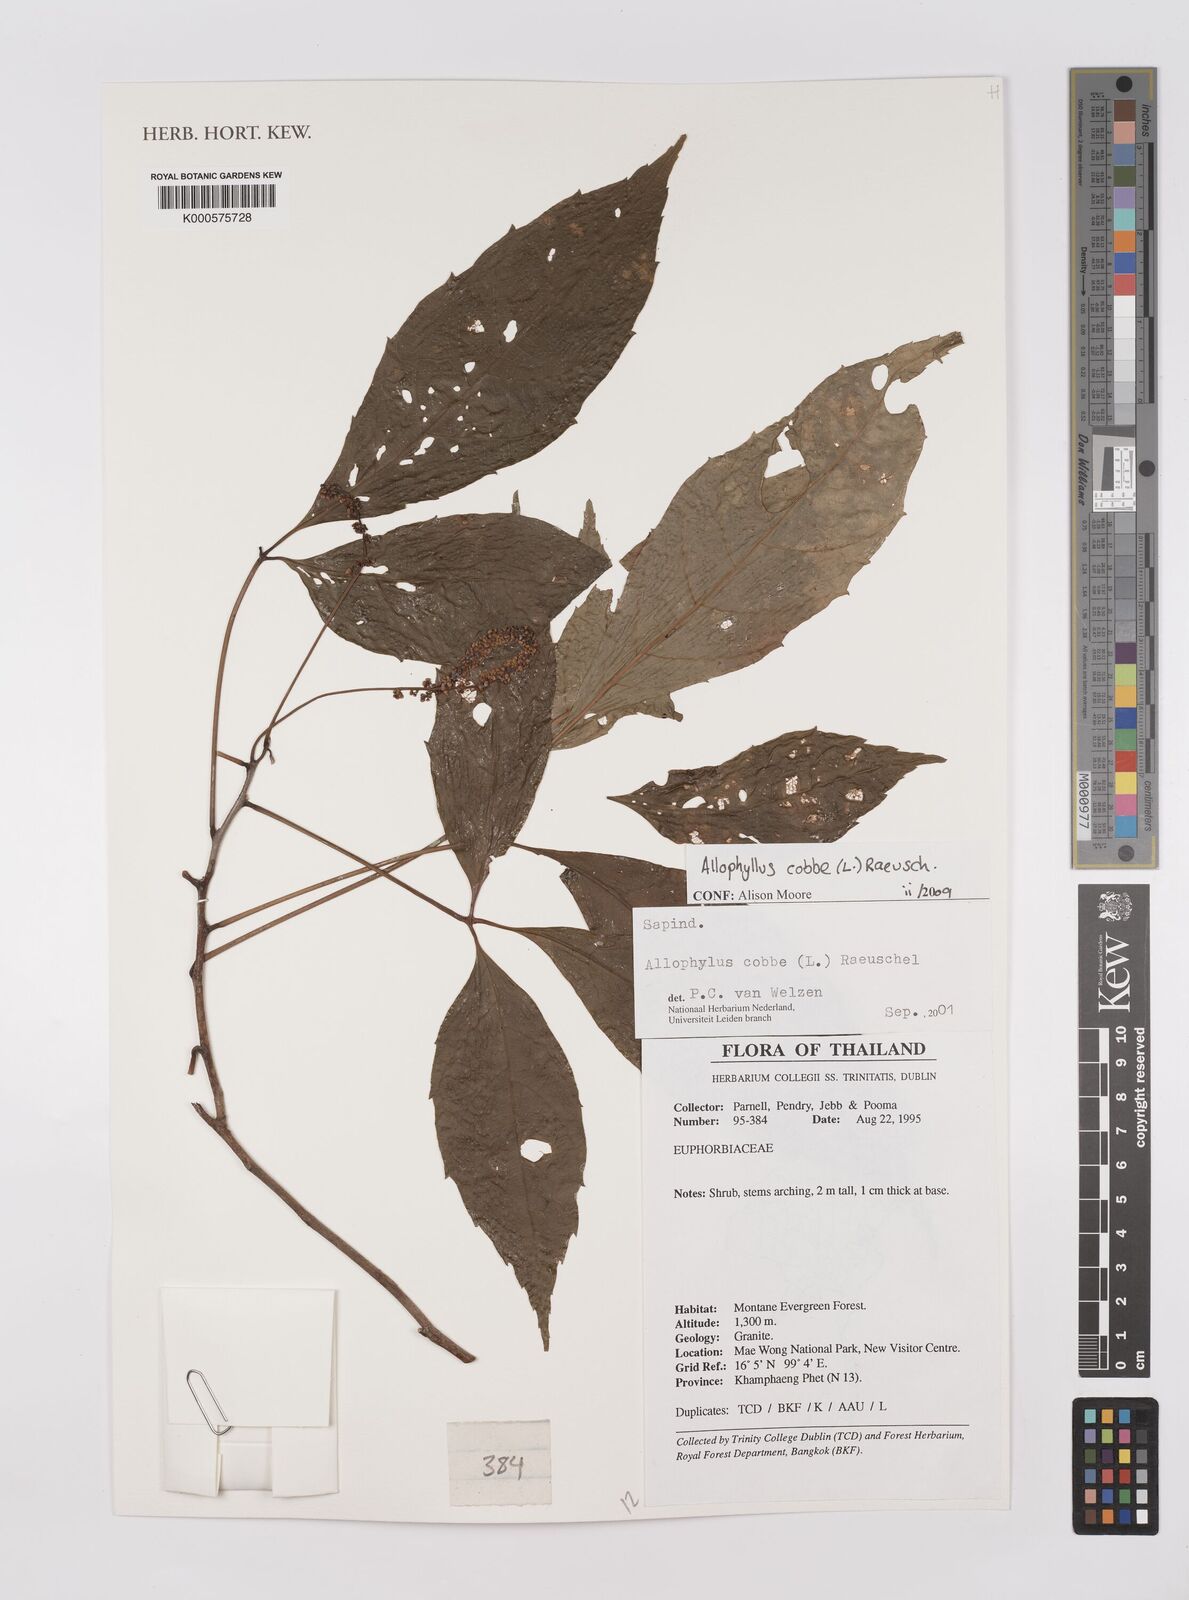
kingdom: Plantae
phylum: Tracheophyta
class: Magnoliopsida
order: Sapindales
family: Sapindaceae
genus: Allophylus
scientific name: Allophylus
